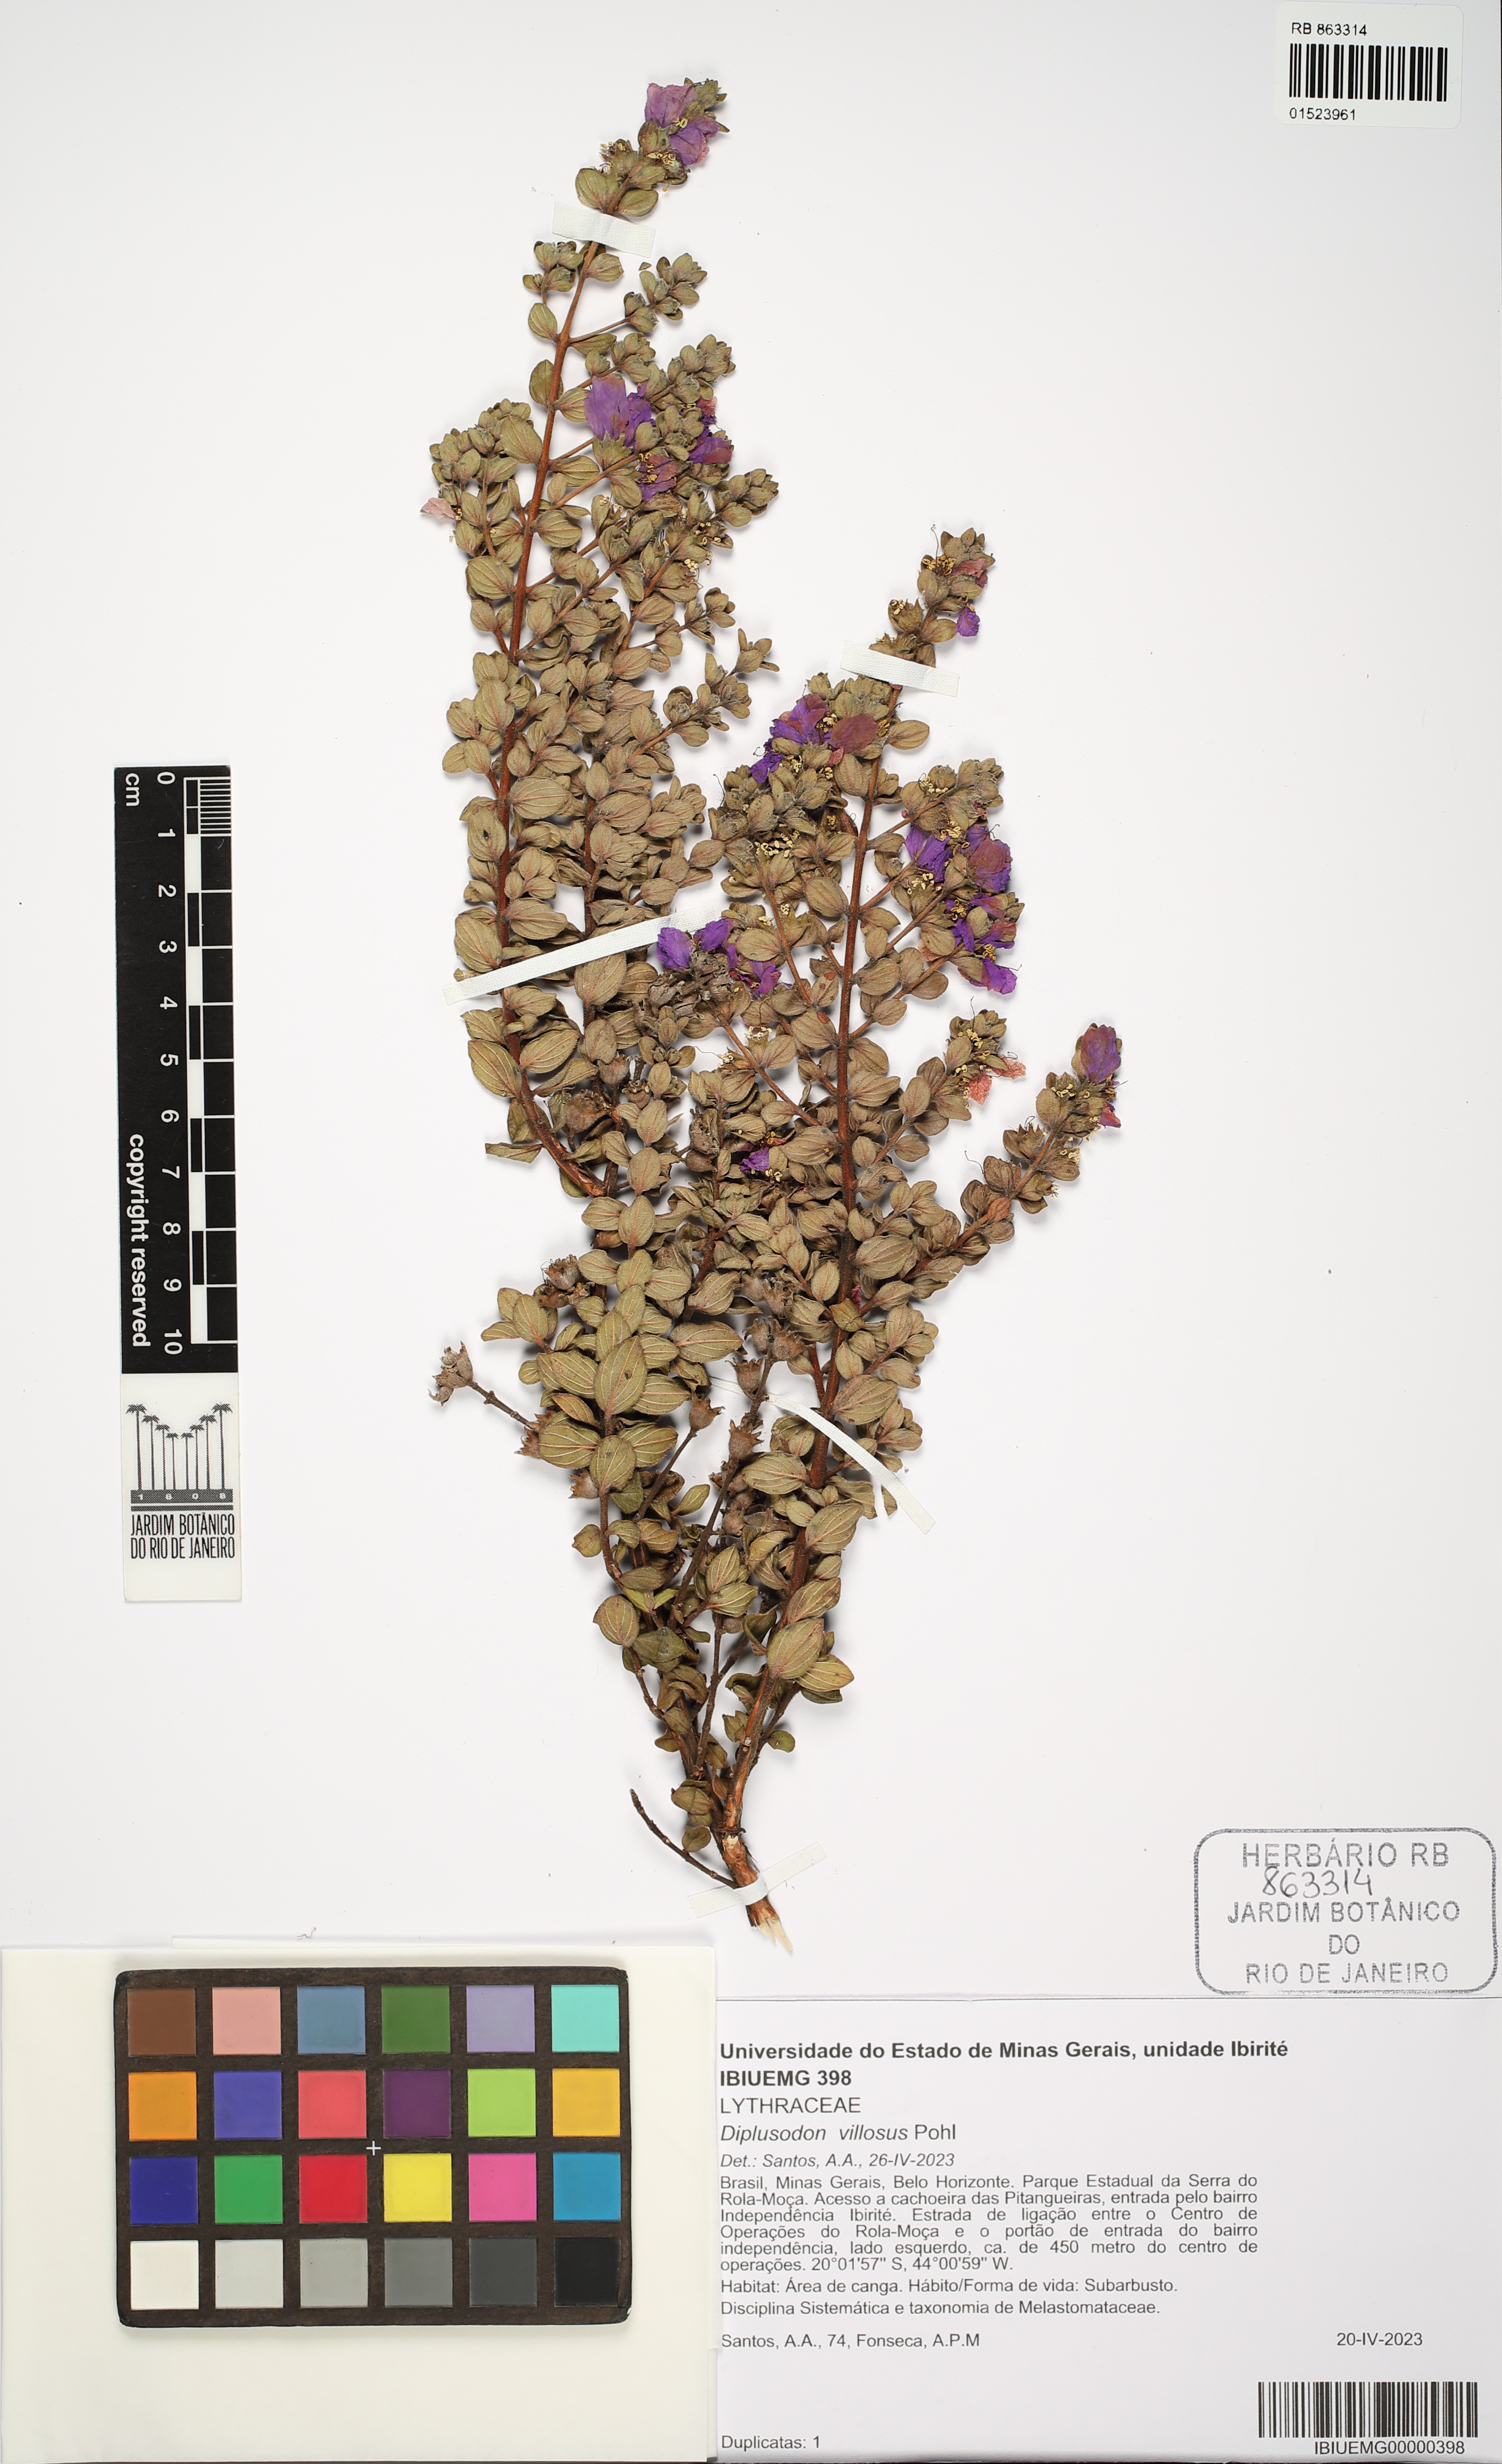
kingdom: Plantae
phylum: Tracheophyta
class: Magnoliopsida
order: Myrtales
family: Lythraceae
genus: Diplusodon
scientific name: Diplusodon villosus
